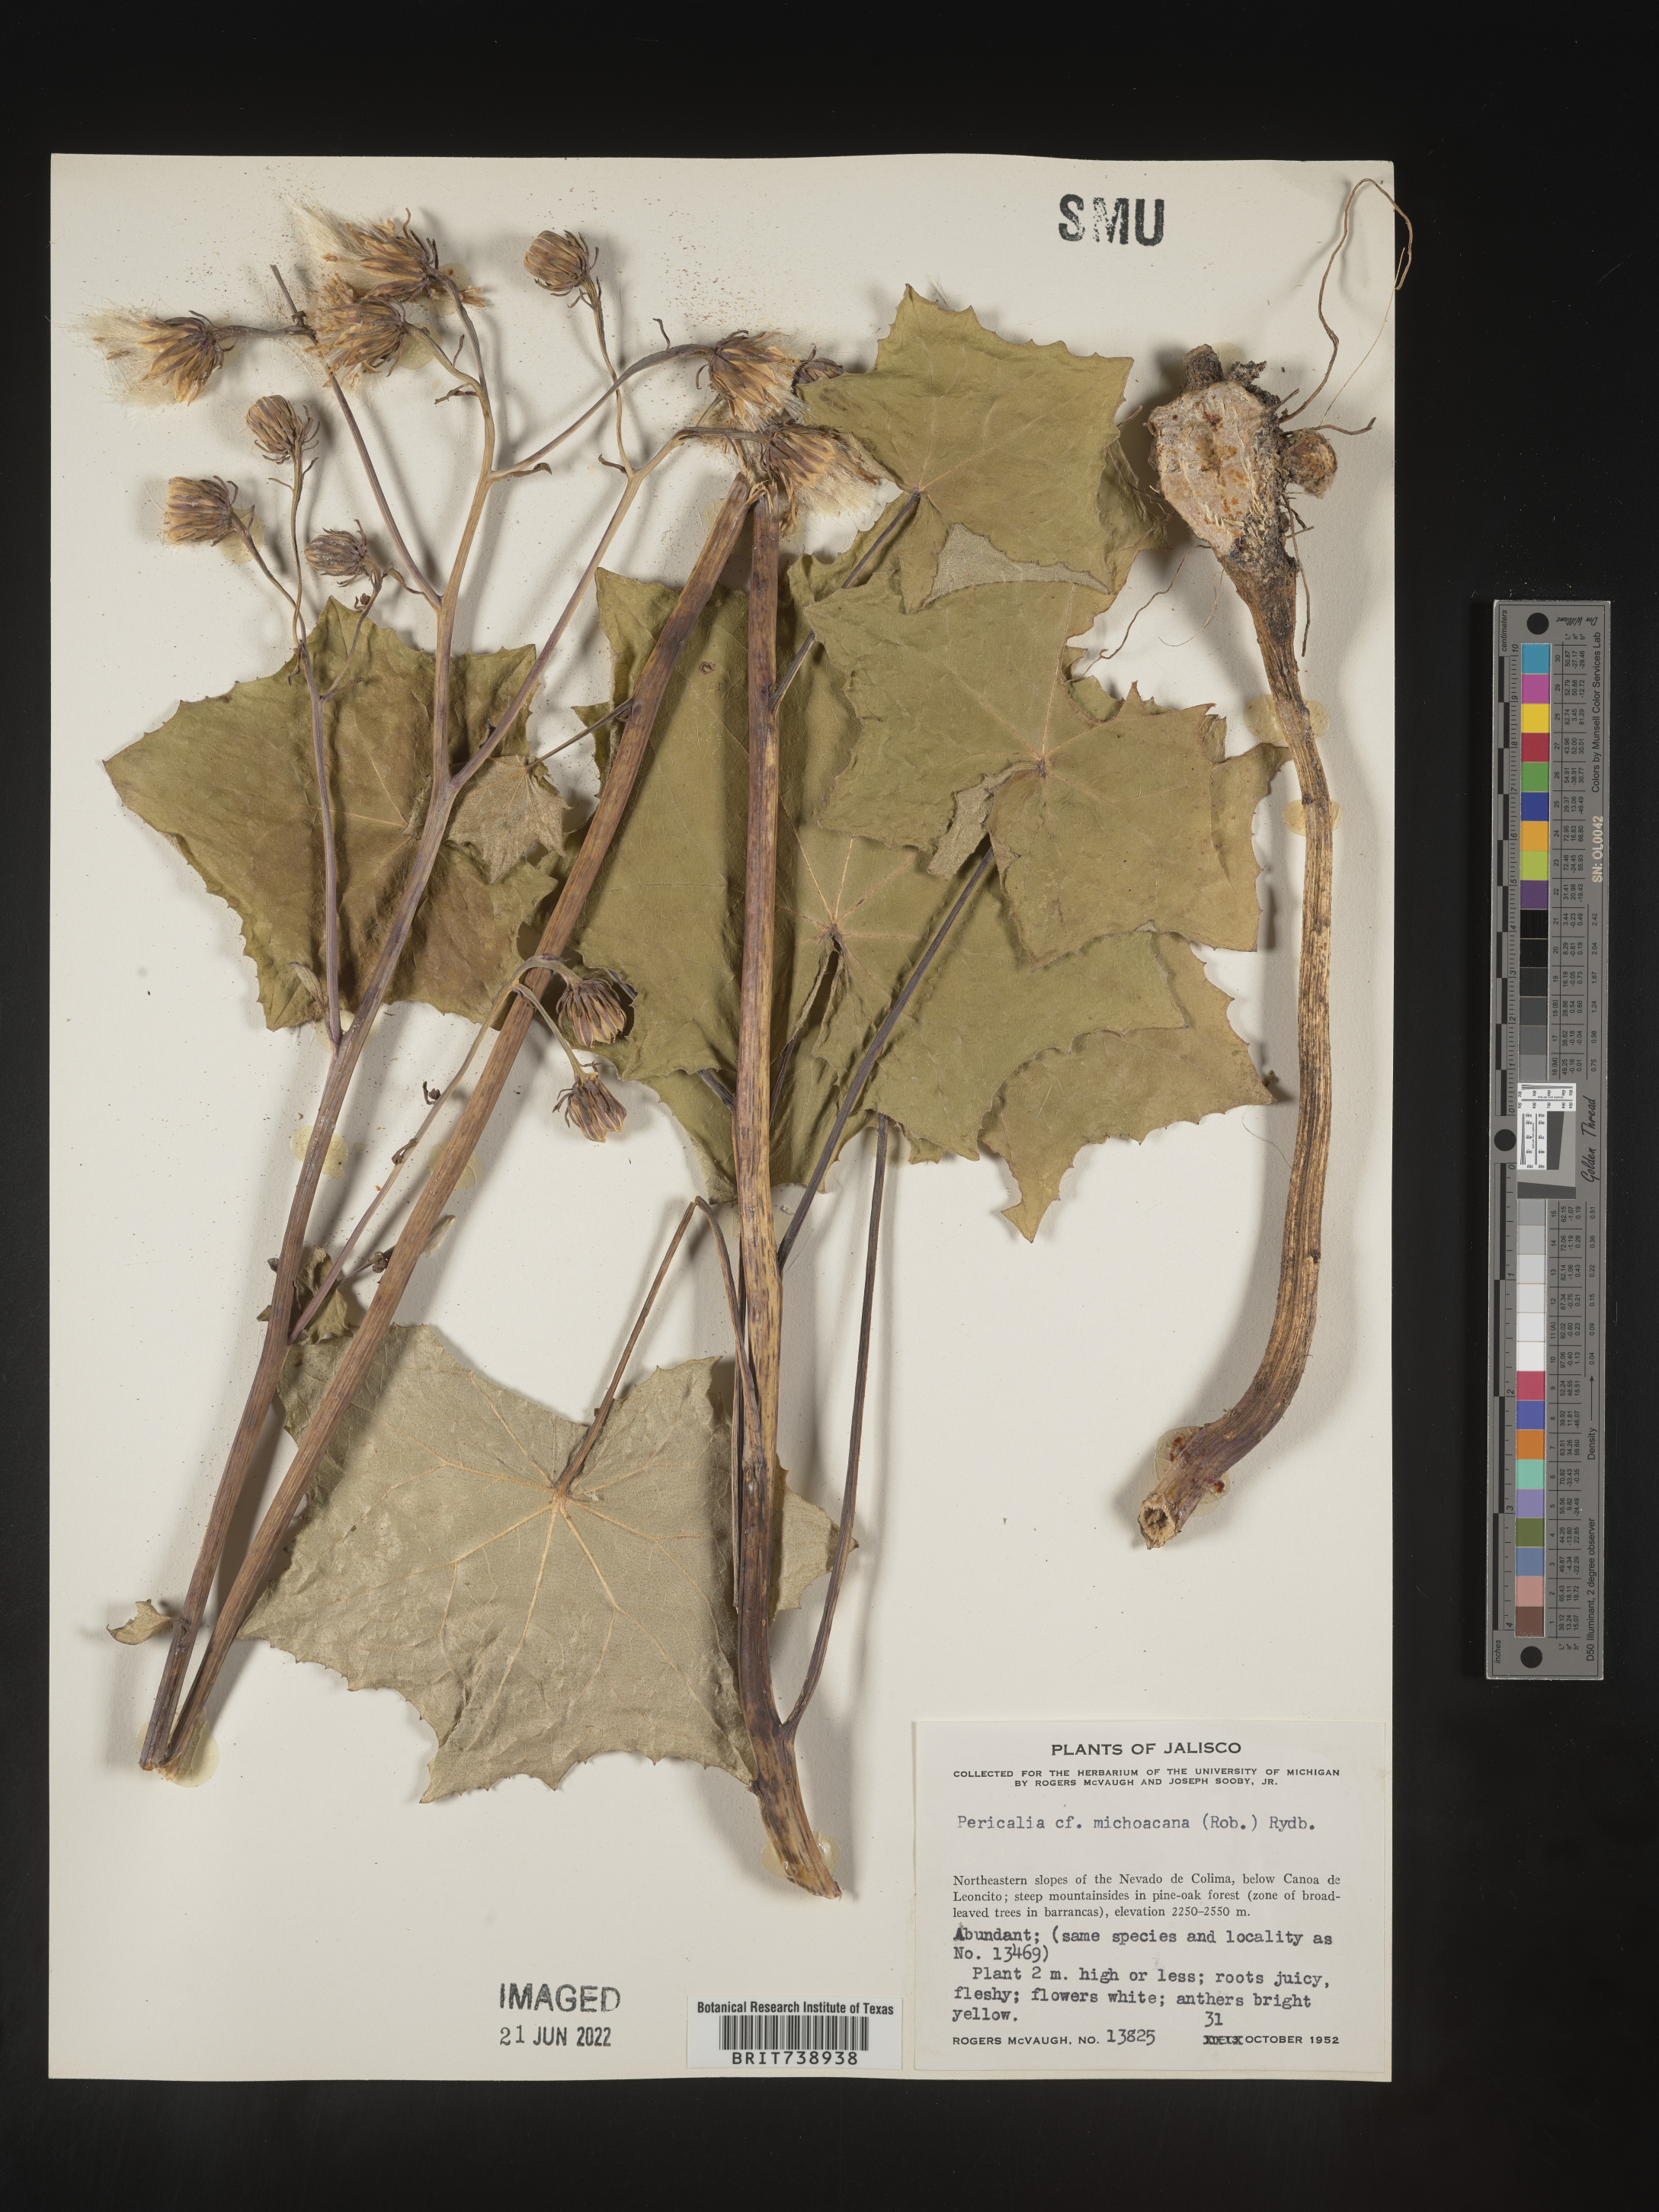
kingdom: Plantae
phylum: Tracheophyta
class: Magnoliopsida
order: Asterales
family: Asteraceae
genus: Roldana
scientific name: Roldana
